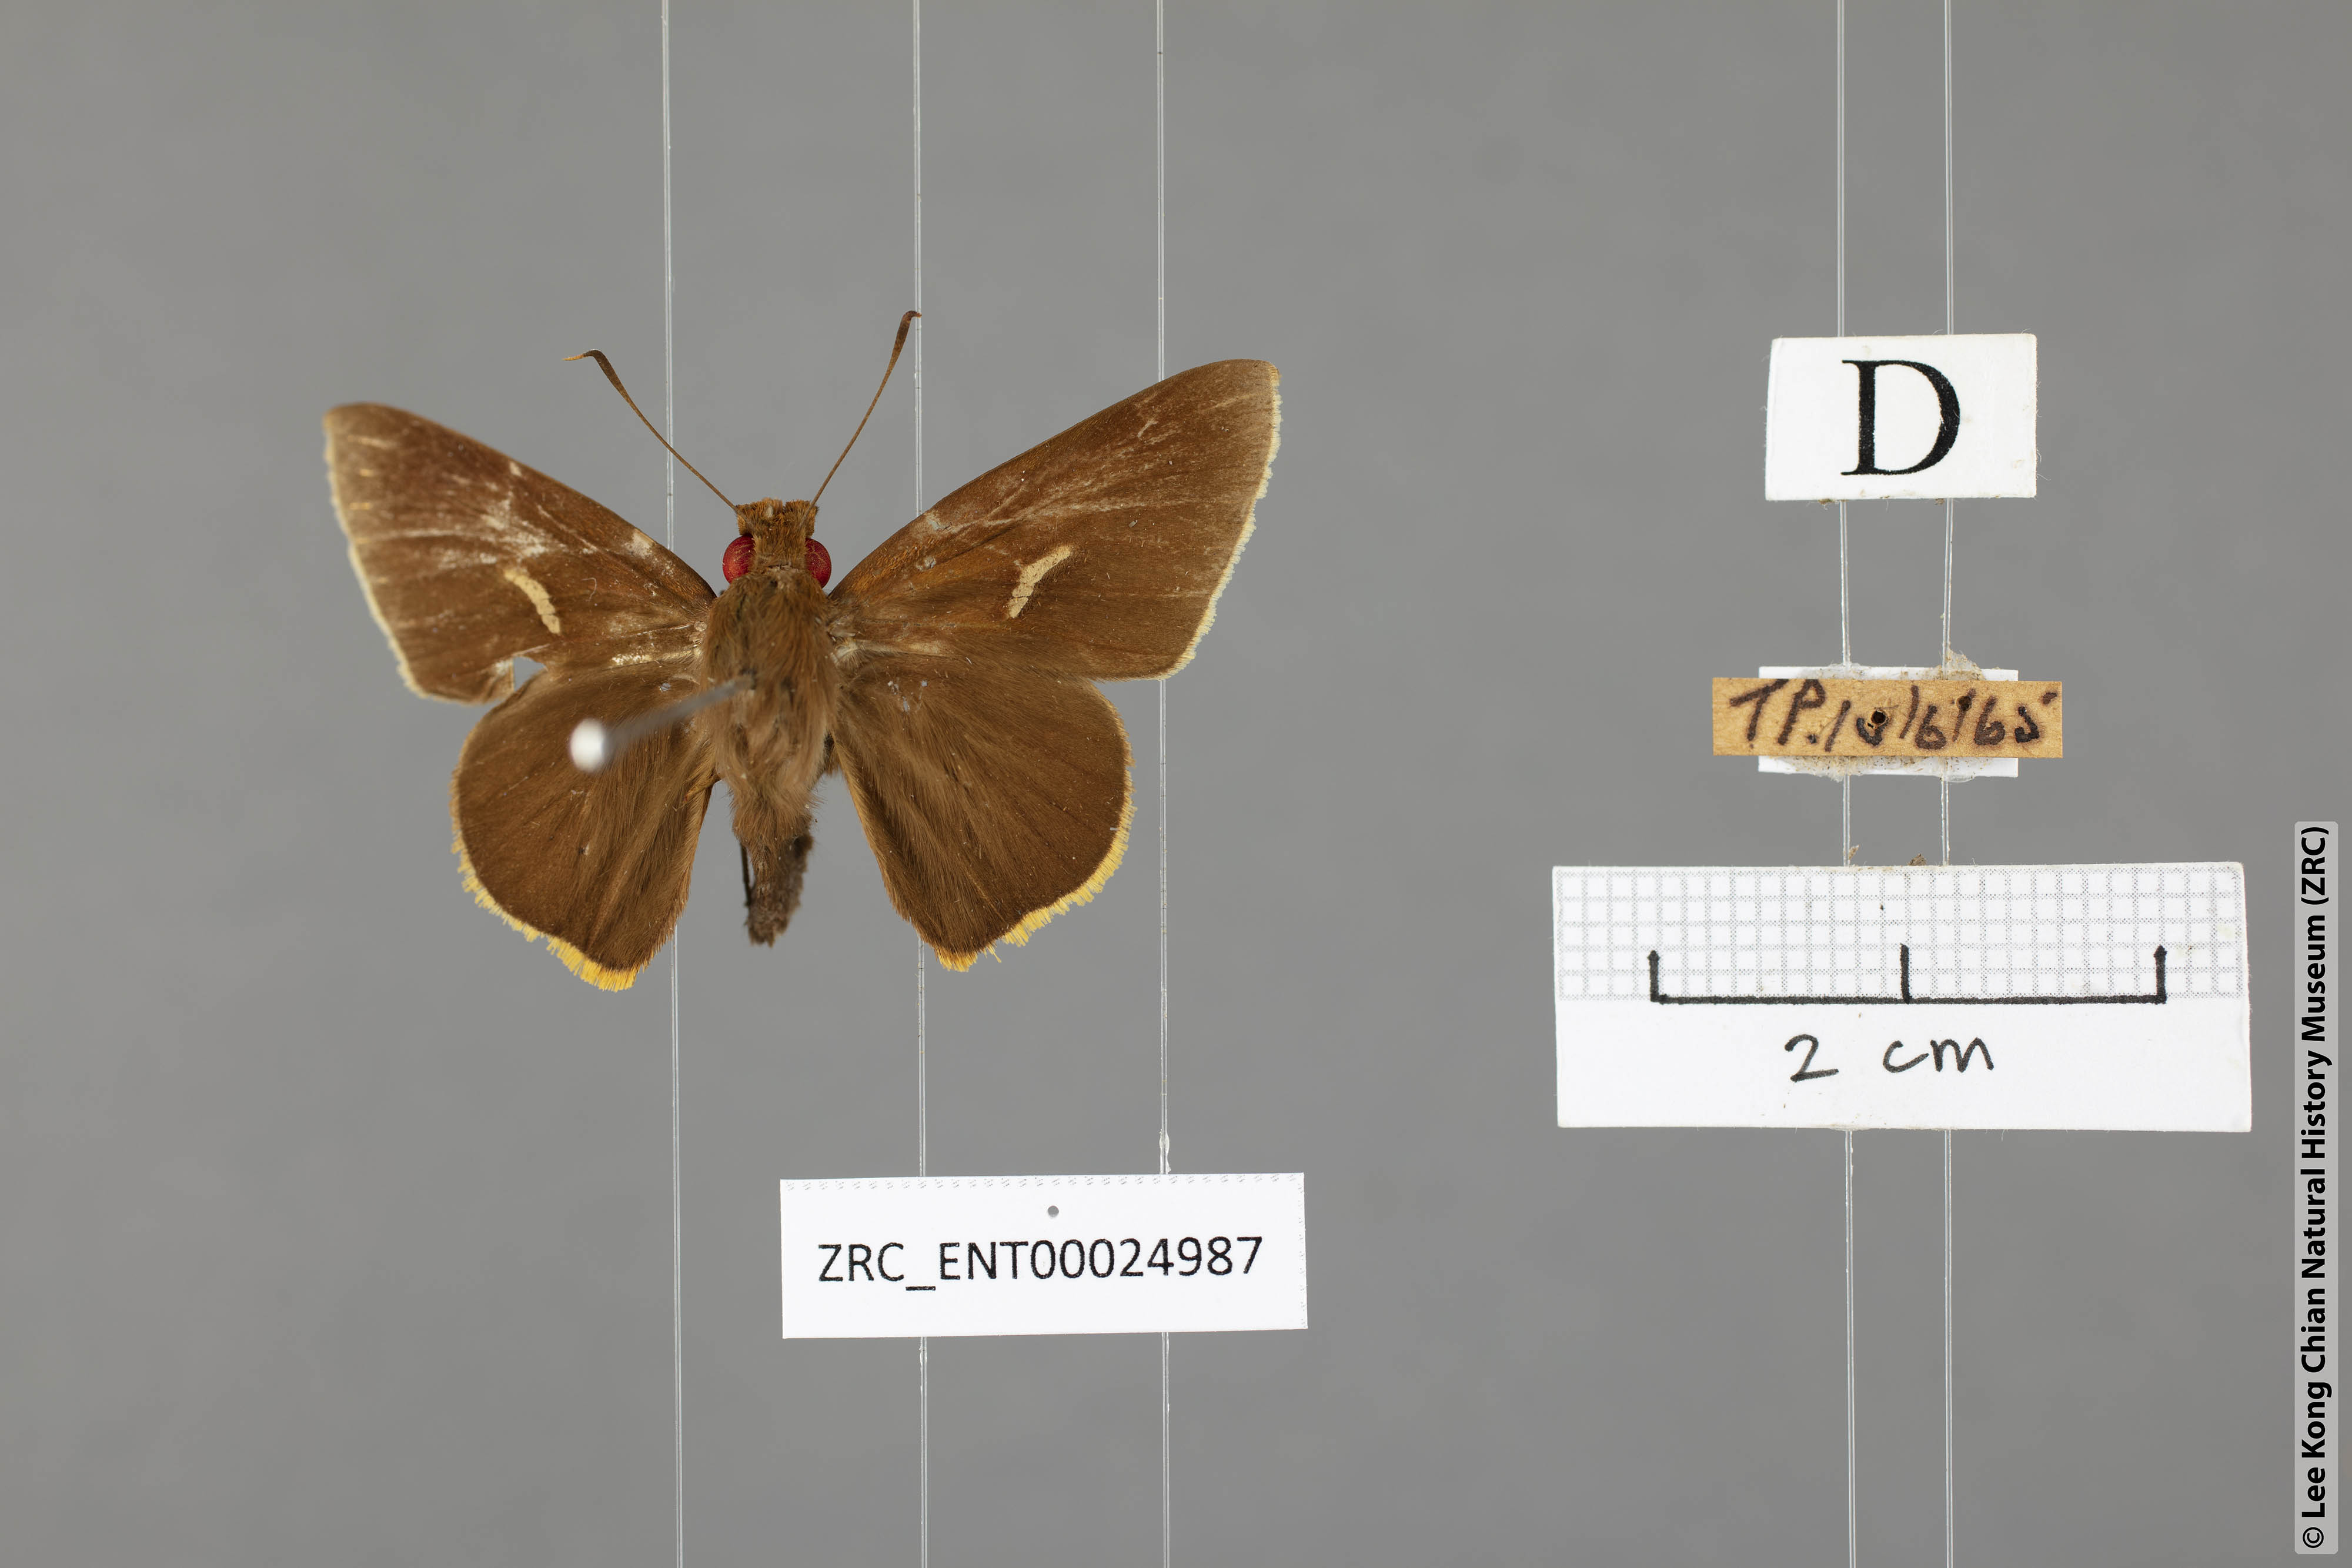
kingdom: Animalia
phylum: Arthropoda
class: Insecta
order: Lepidoptera
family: Hesperiidae
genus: Matapa
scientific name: Matapa druna
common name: Grey-brand redeye
